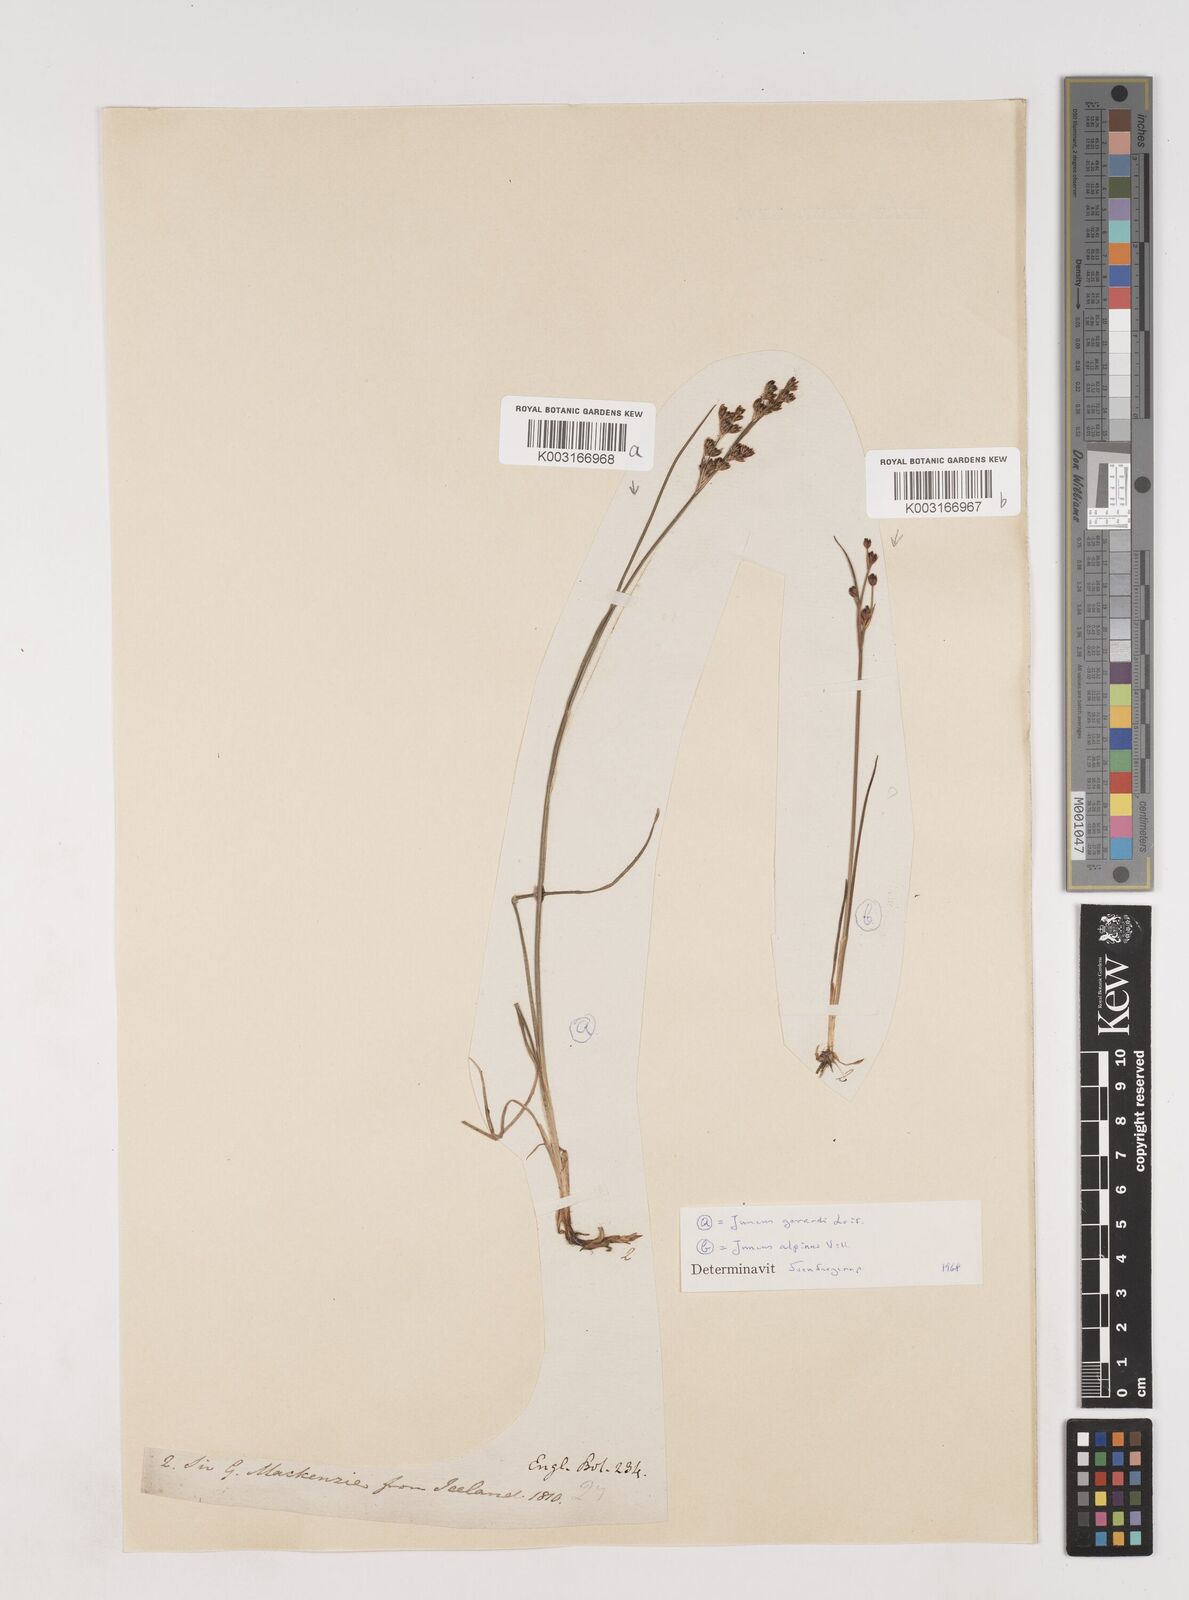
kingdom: Plantae
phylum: Tracheophyta
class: Liliopsida
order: Poales
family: Juncaceae
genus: Juncus
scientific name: Juncus gerardi
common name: Saltmarsh rush
